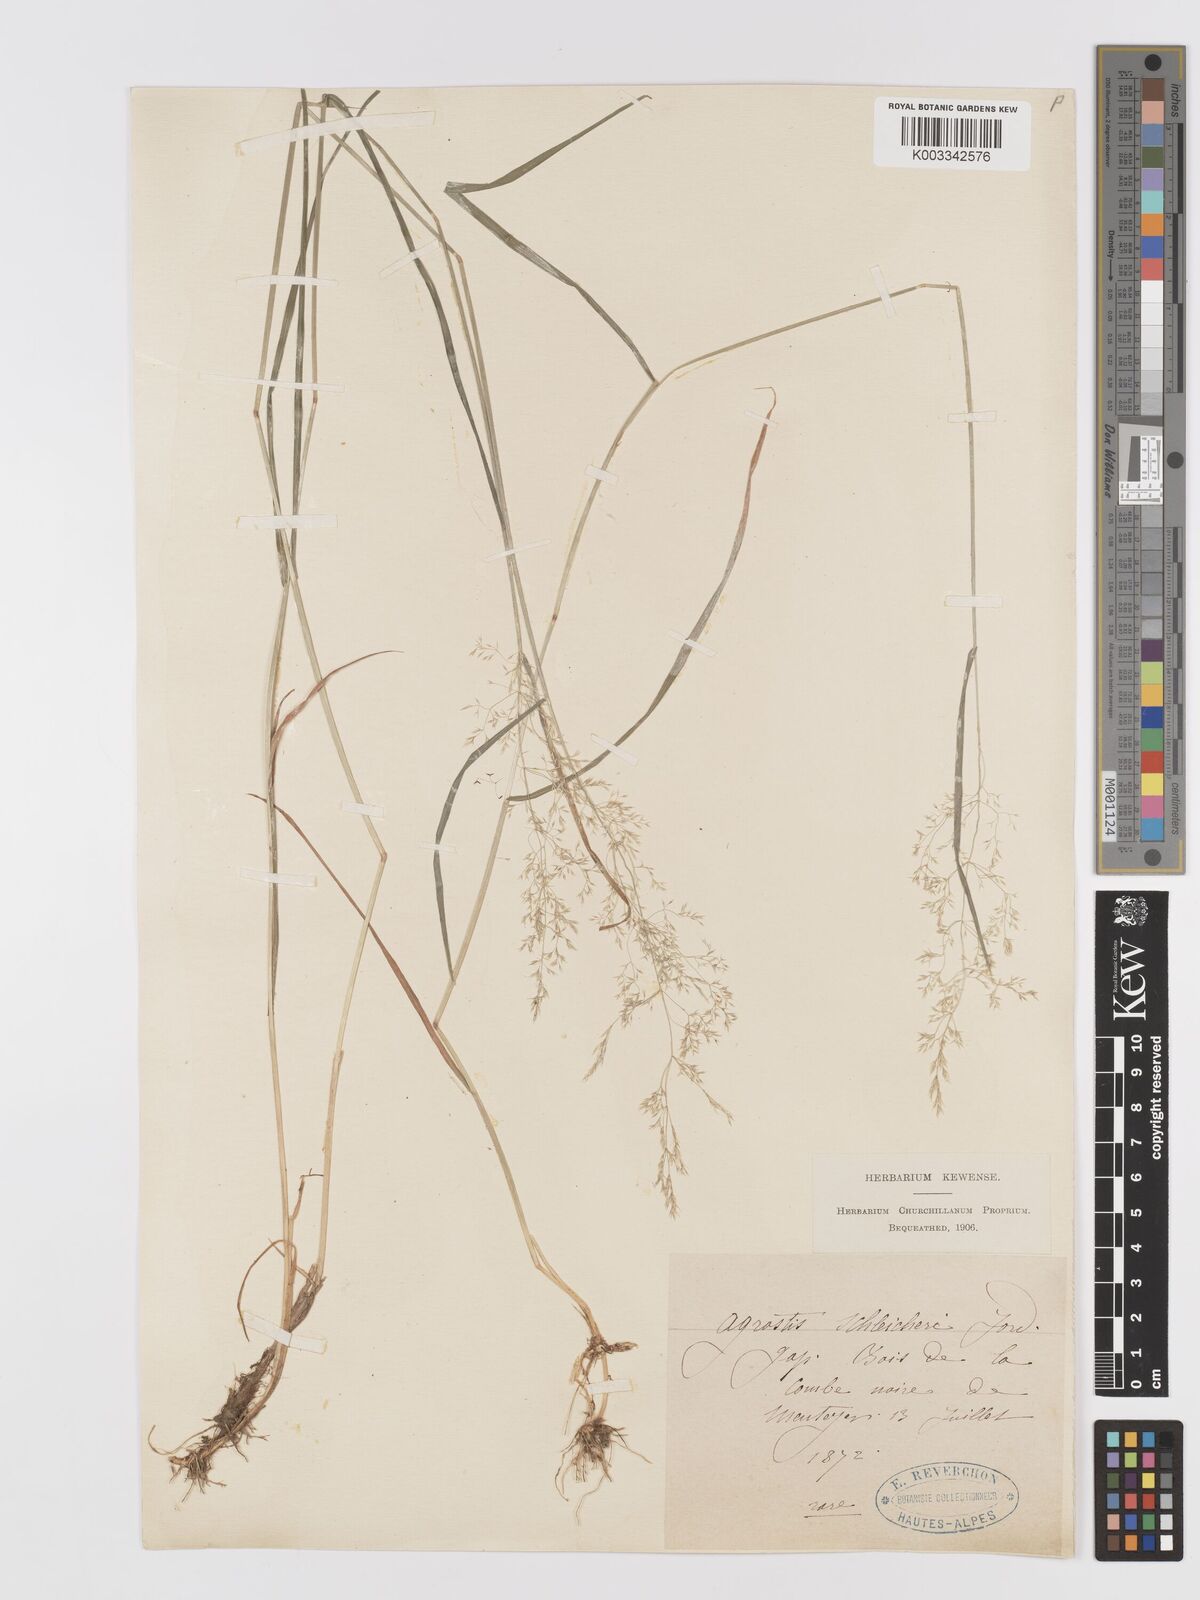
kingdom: Plantae
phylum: Tracheophyta
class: Liliopsida
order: Poales
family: Poaceae
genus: Agrostis
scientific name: Agrostis
